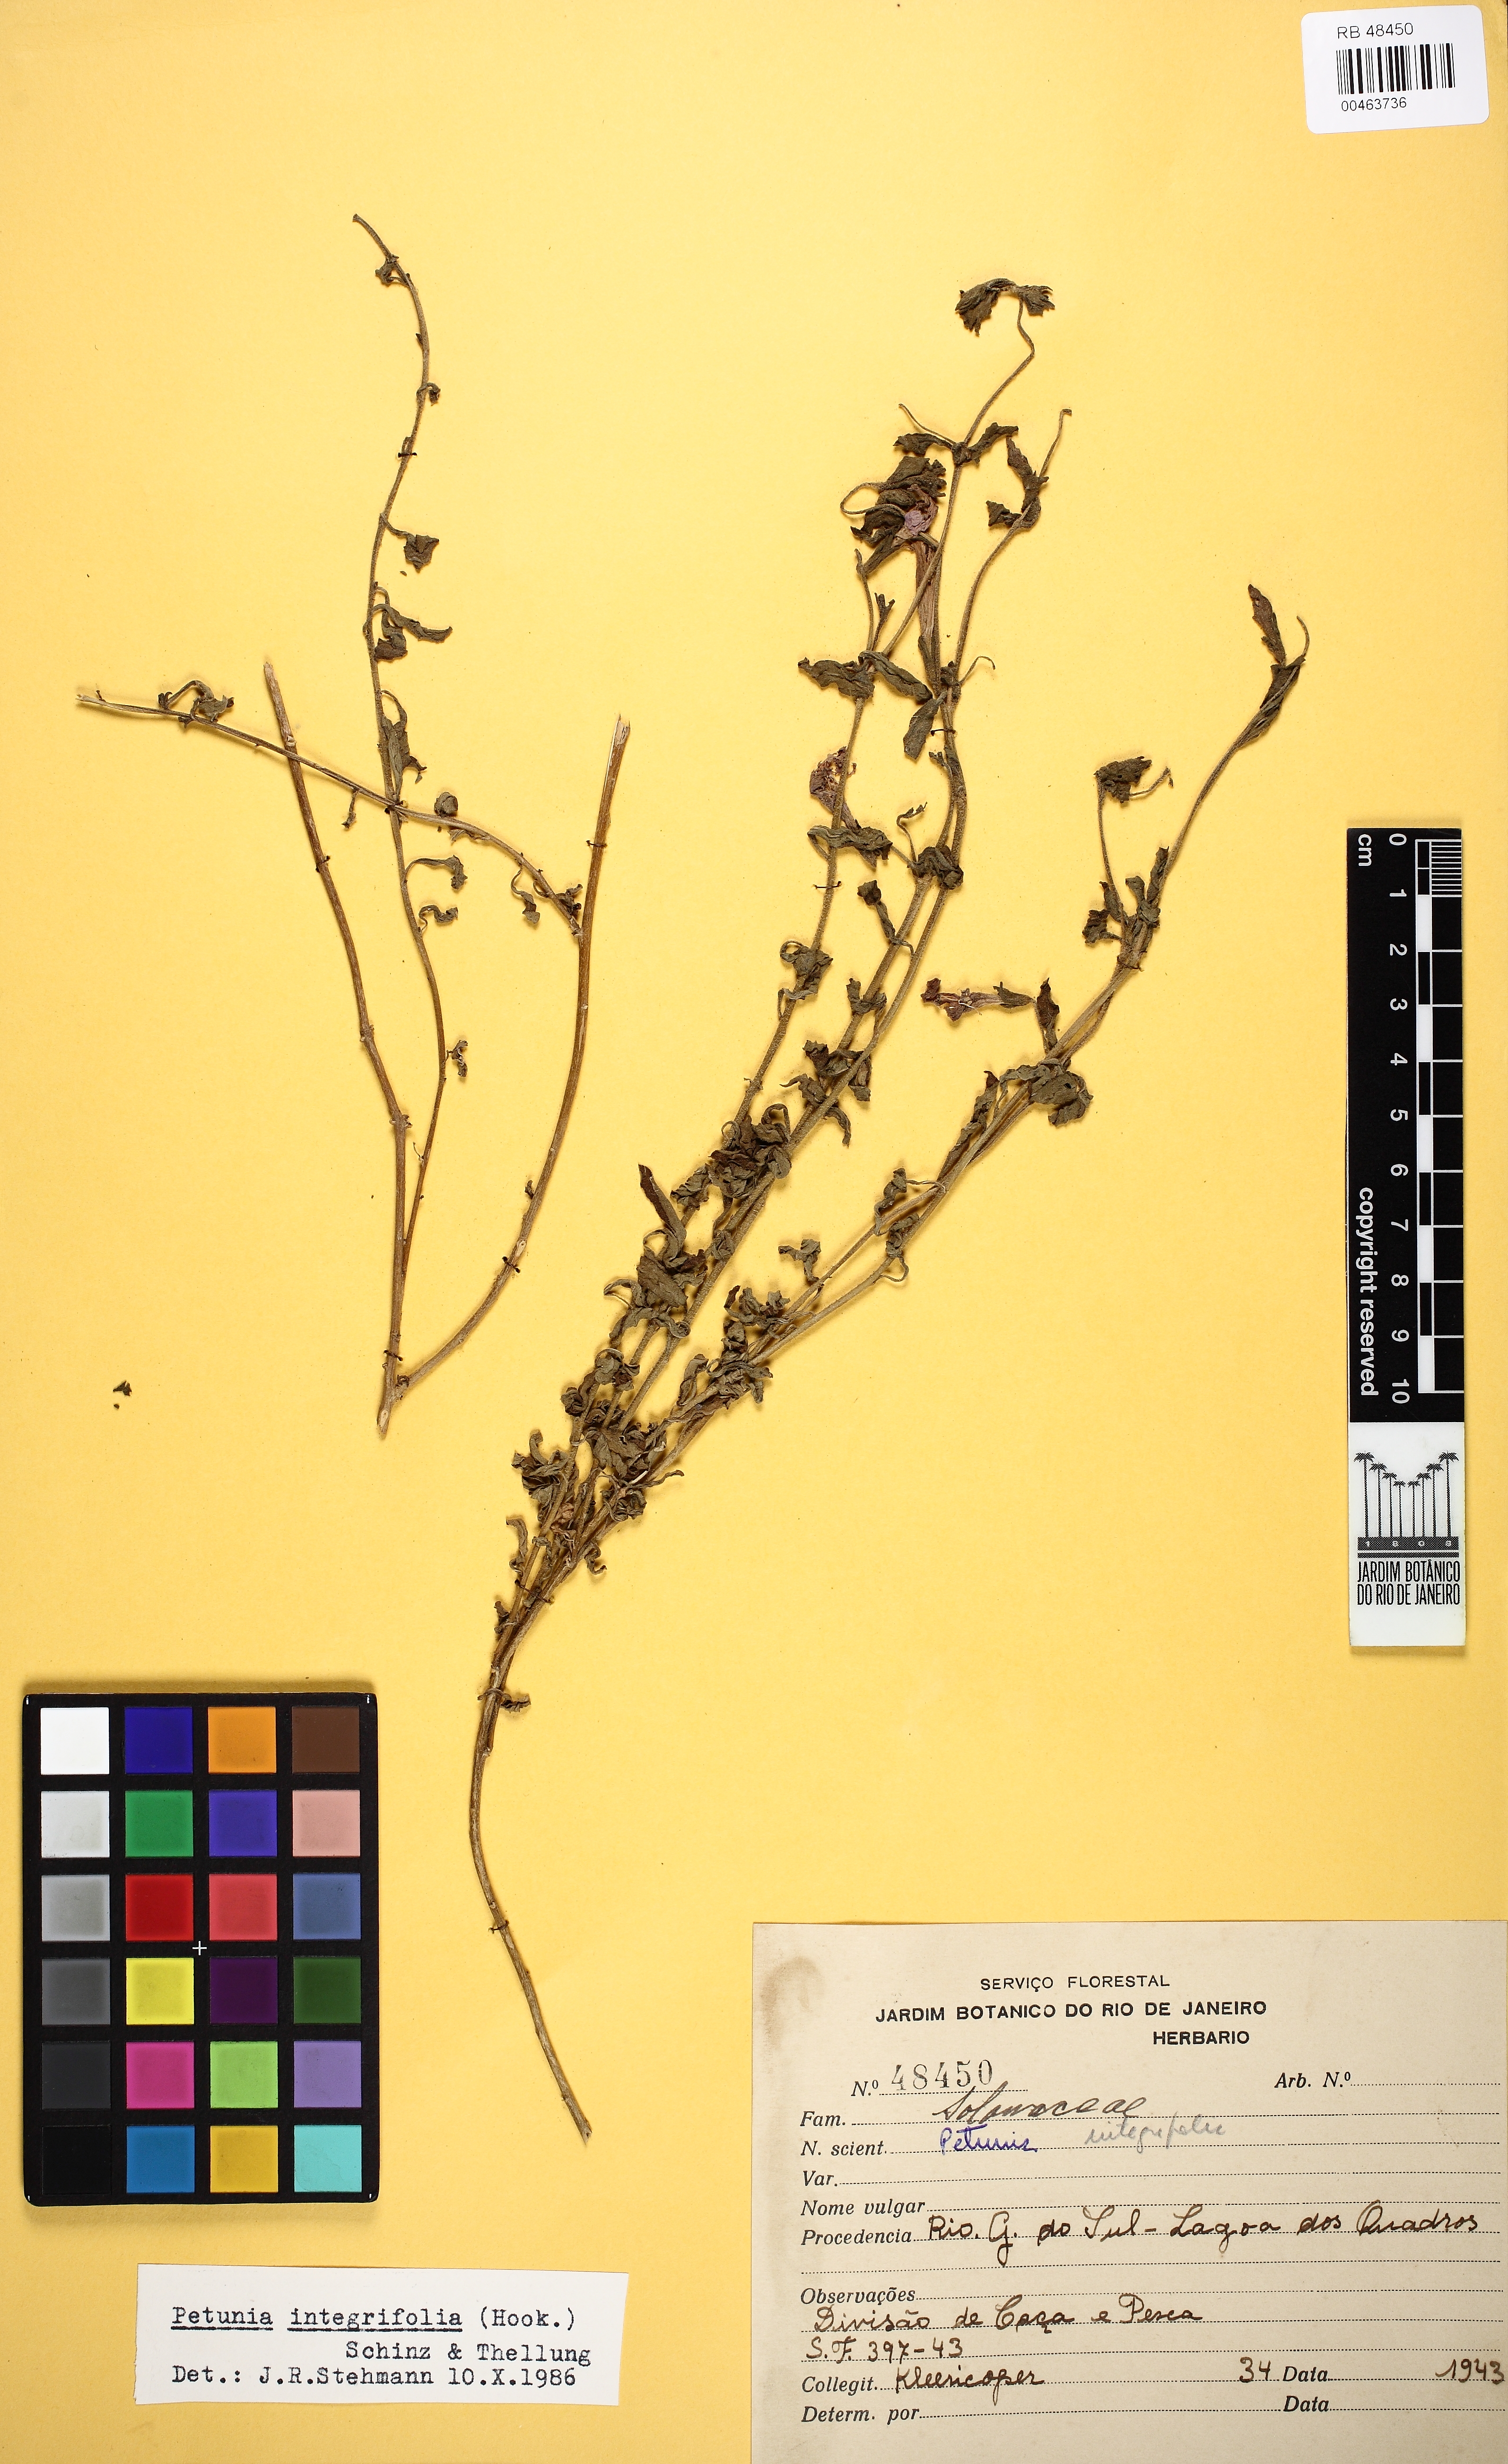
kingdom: Plantae
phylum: Tracheophyta
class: Magnoliopsida
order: Solanales
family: Solanaceae
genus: Petunia
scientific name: Petunia integrifolia
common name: Violet-flower petunia
